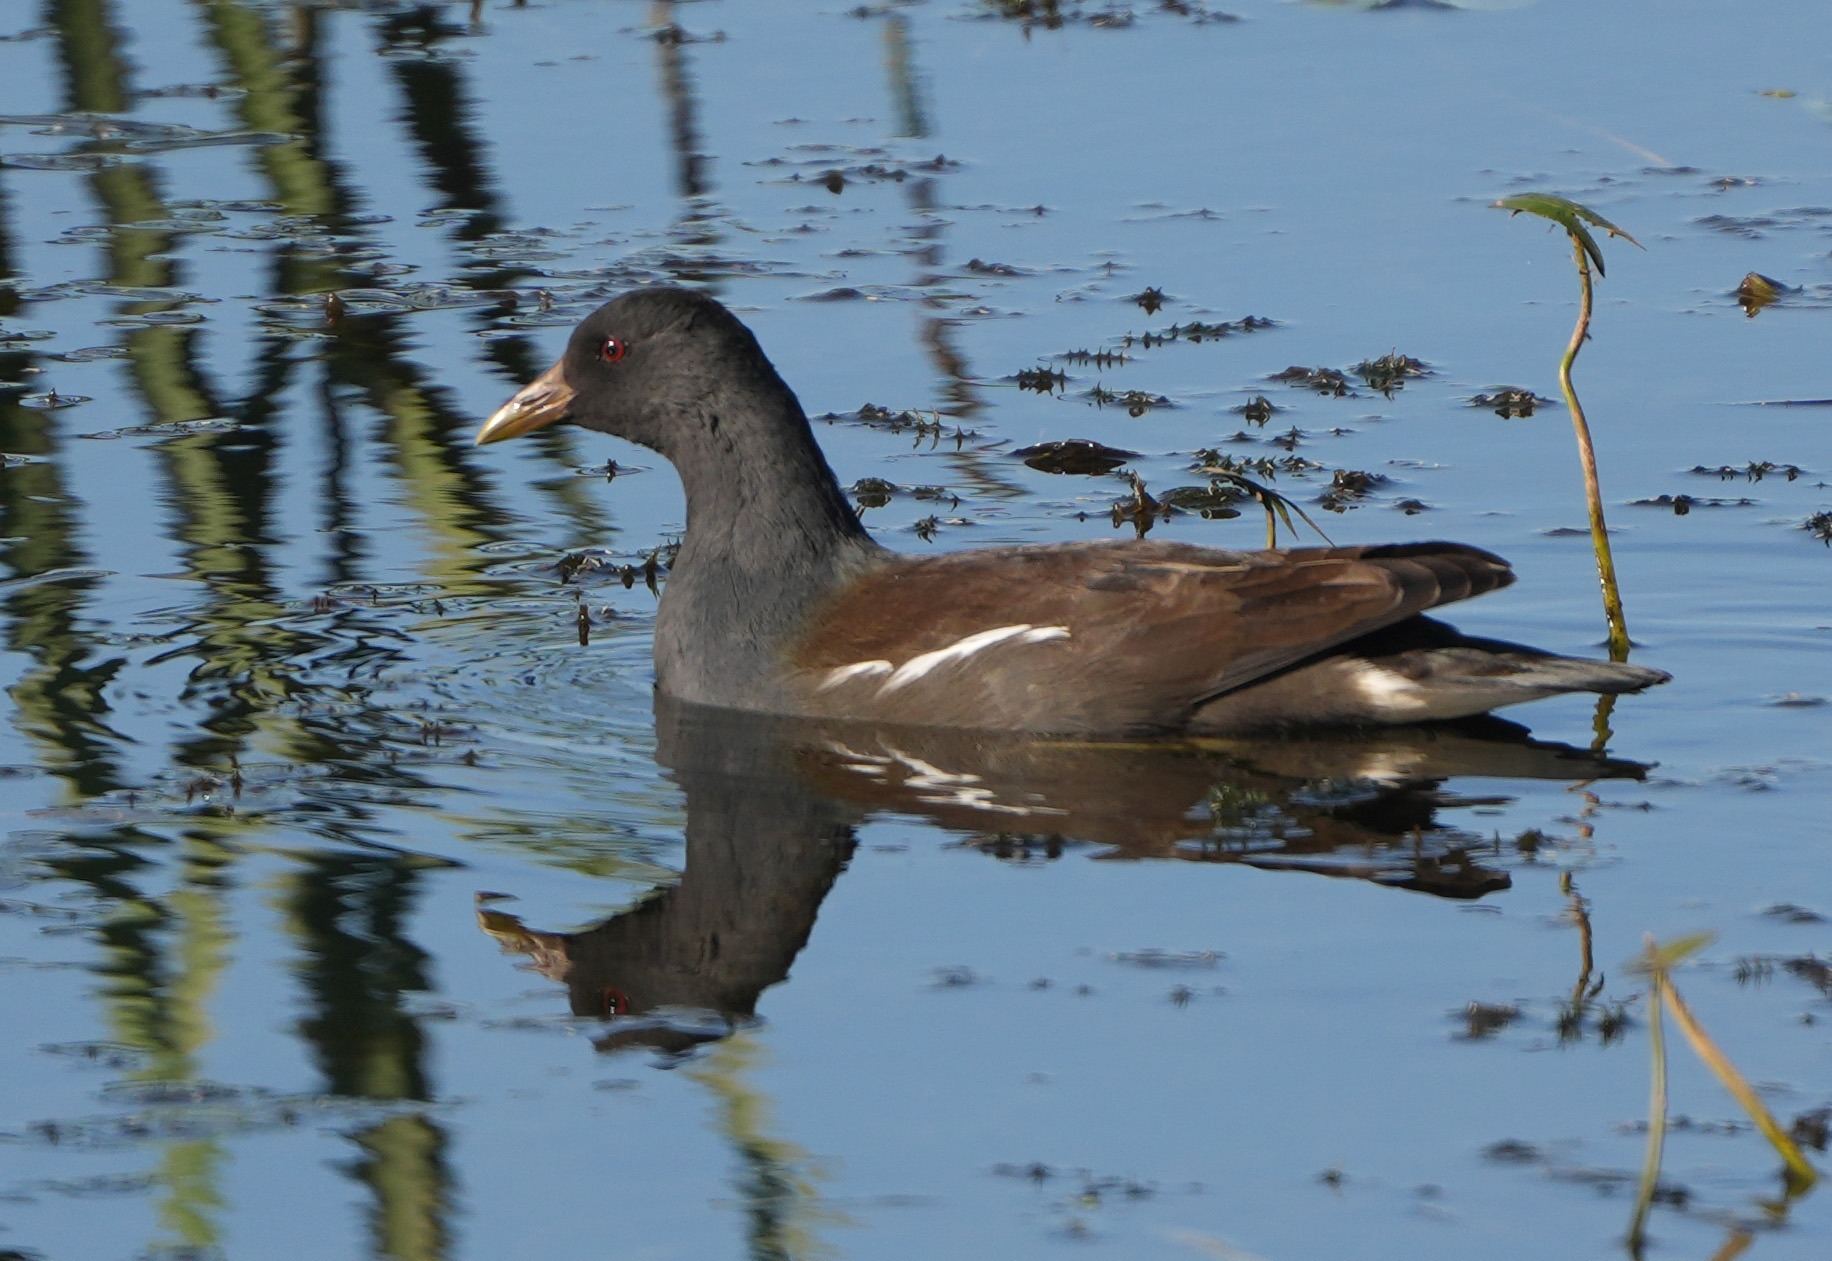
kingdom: Animalia
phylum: Chordata
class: Aves
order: Gruiformes
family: Rallidae
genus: Gallinula
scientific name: Gallinula chloropus
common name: Grønbenet rørhøne
